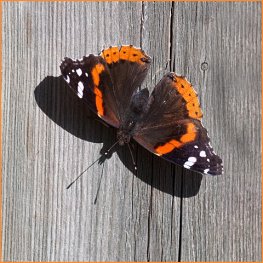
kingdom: Animalia
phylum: Arthropoda
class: Insecta
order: Lepidoptera
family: Nymphalidae
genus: Vanessa
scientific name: Vanessa atalanta
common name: Red Admiral
